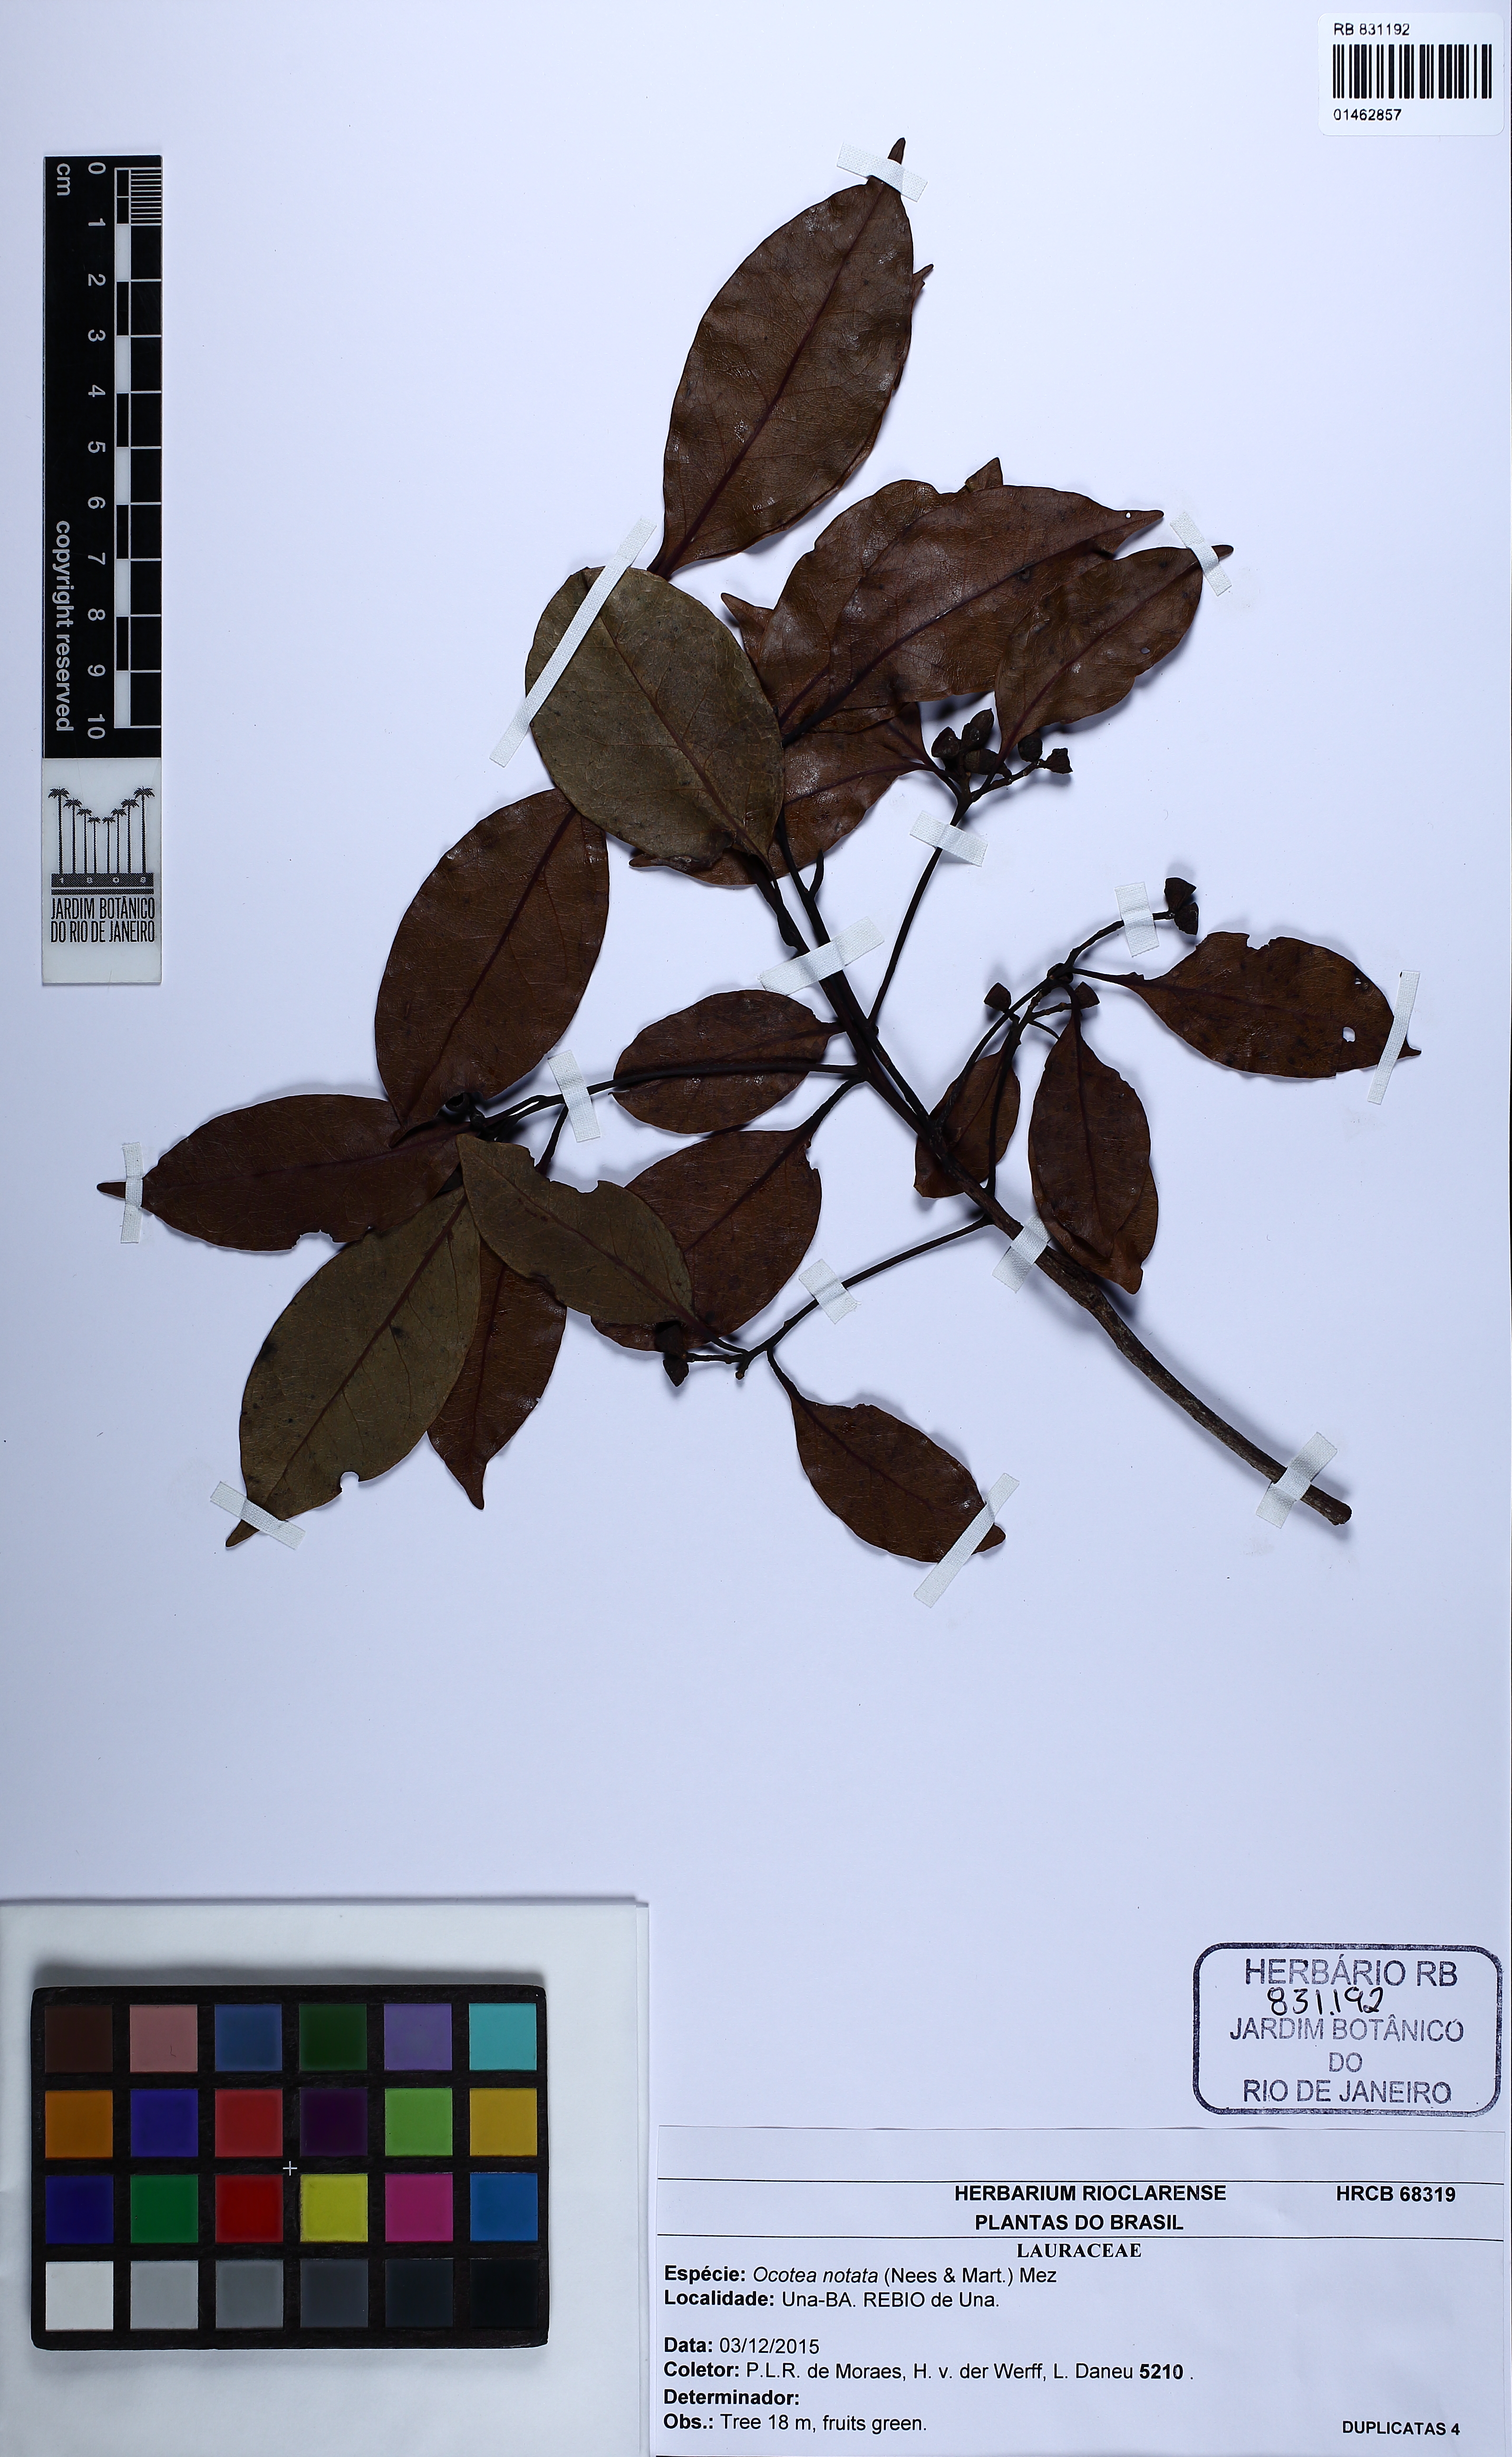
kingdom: Plantae
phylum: Tracheophyta
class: Magnoliopsida
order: Laurales
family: Lauraceae
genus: Mespilodaphne
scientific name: Mespilodaphne notata
